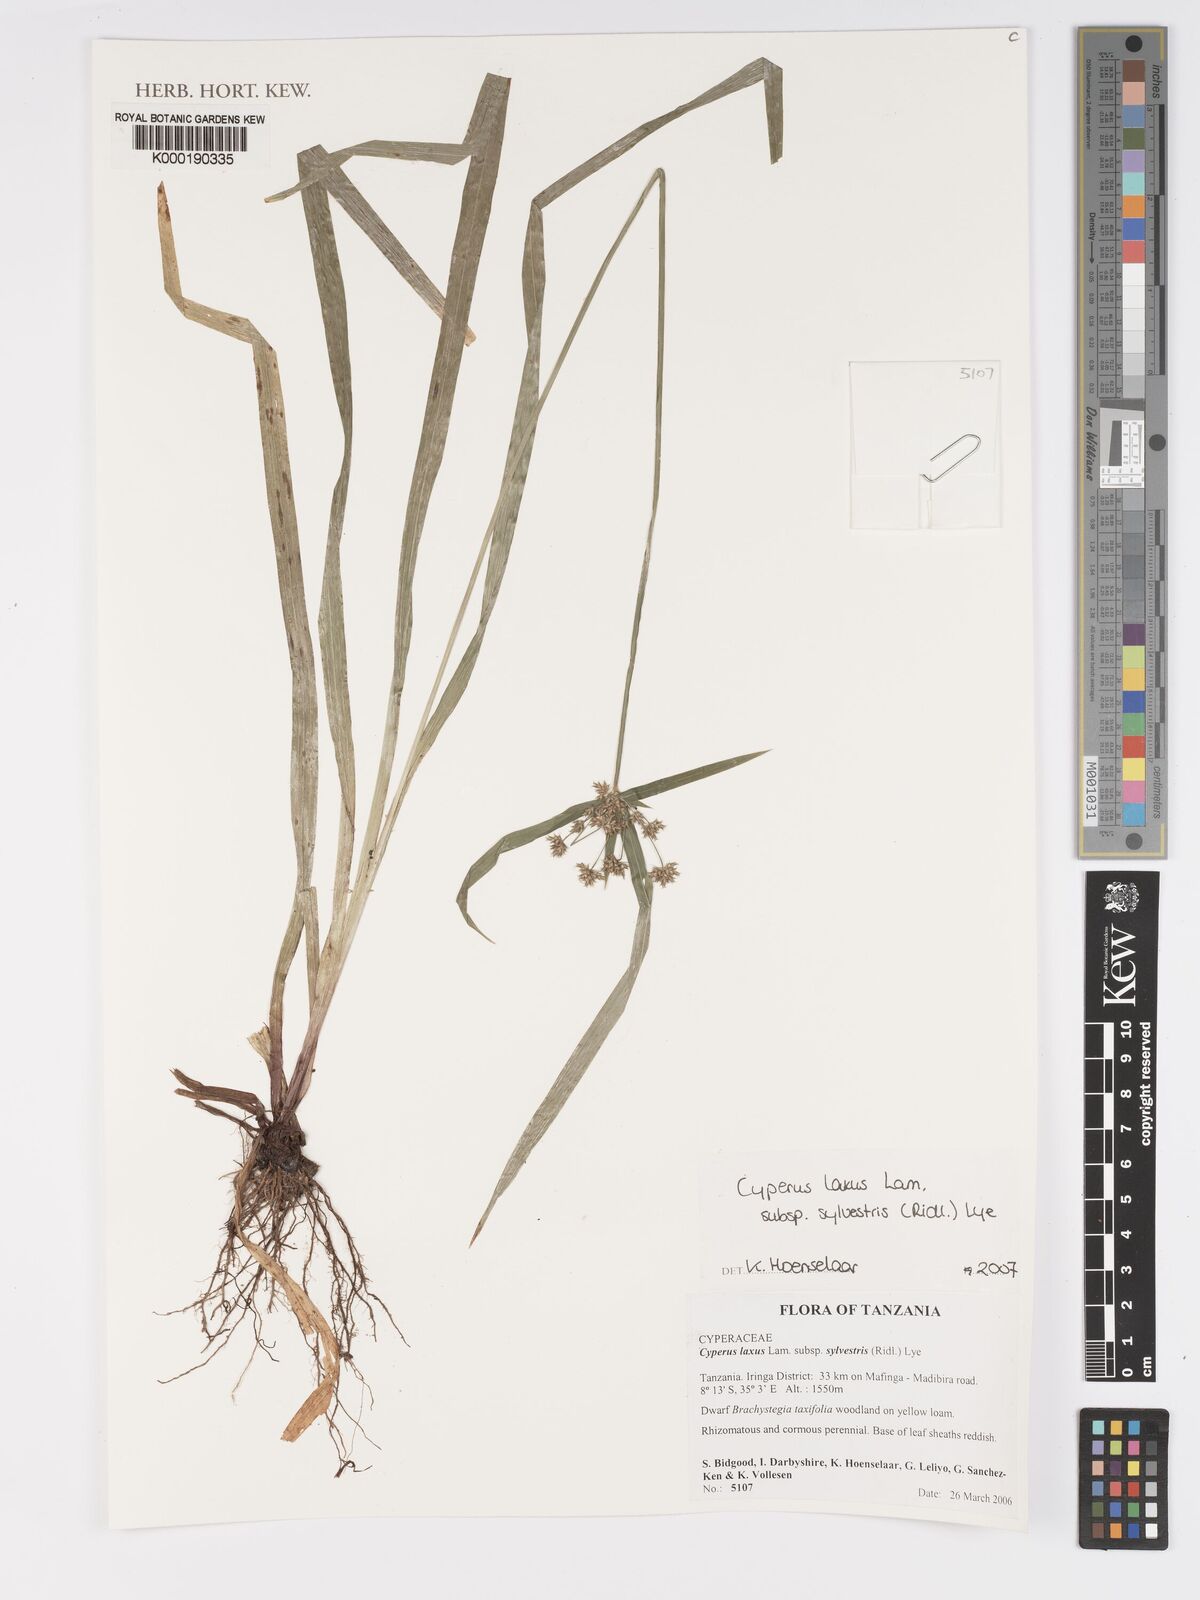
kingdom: Plantae
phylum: Tracheophyta
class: Liliopsida
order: Poales
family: Cyperaceae
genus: Cyperus
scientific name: Cyperus sylvestris
